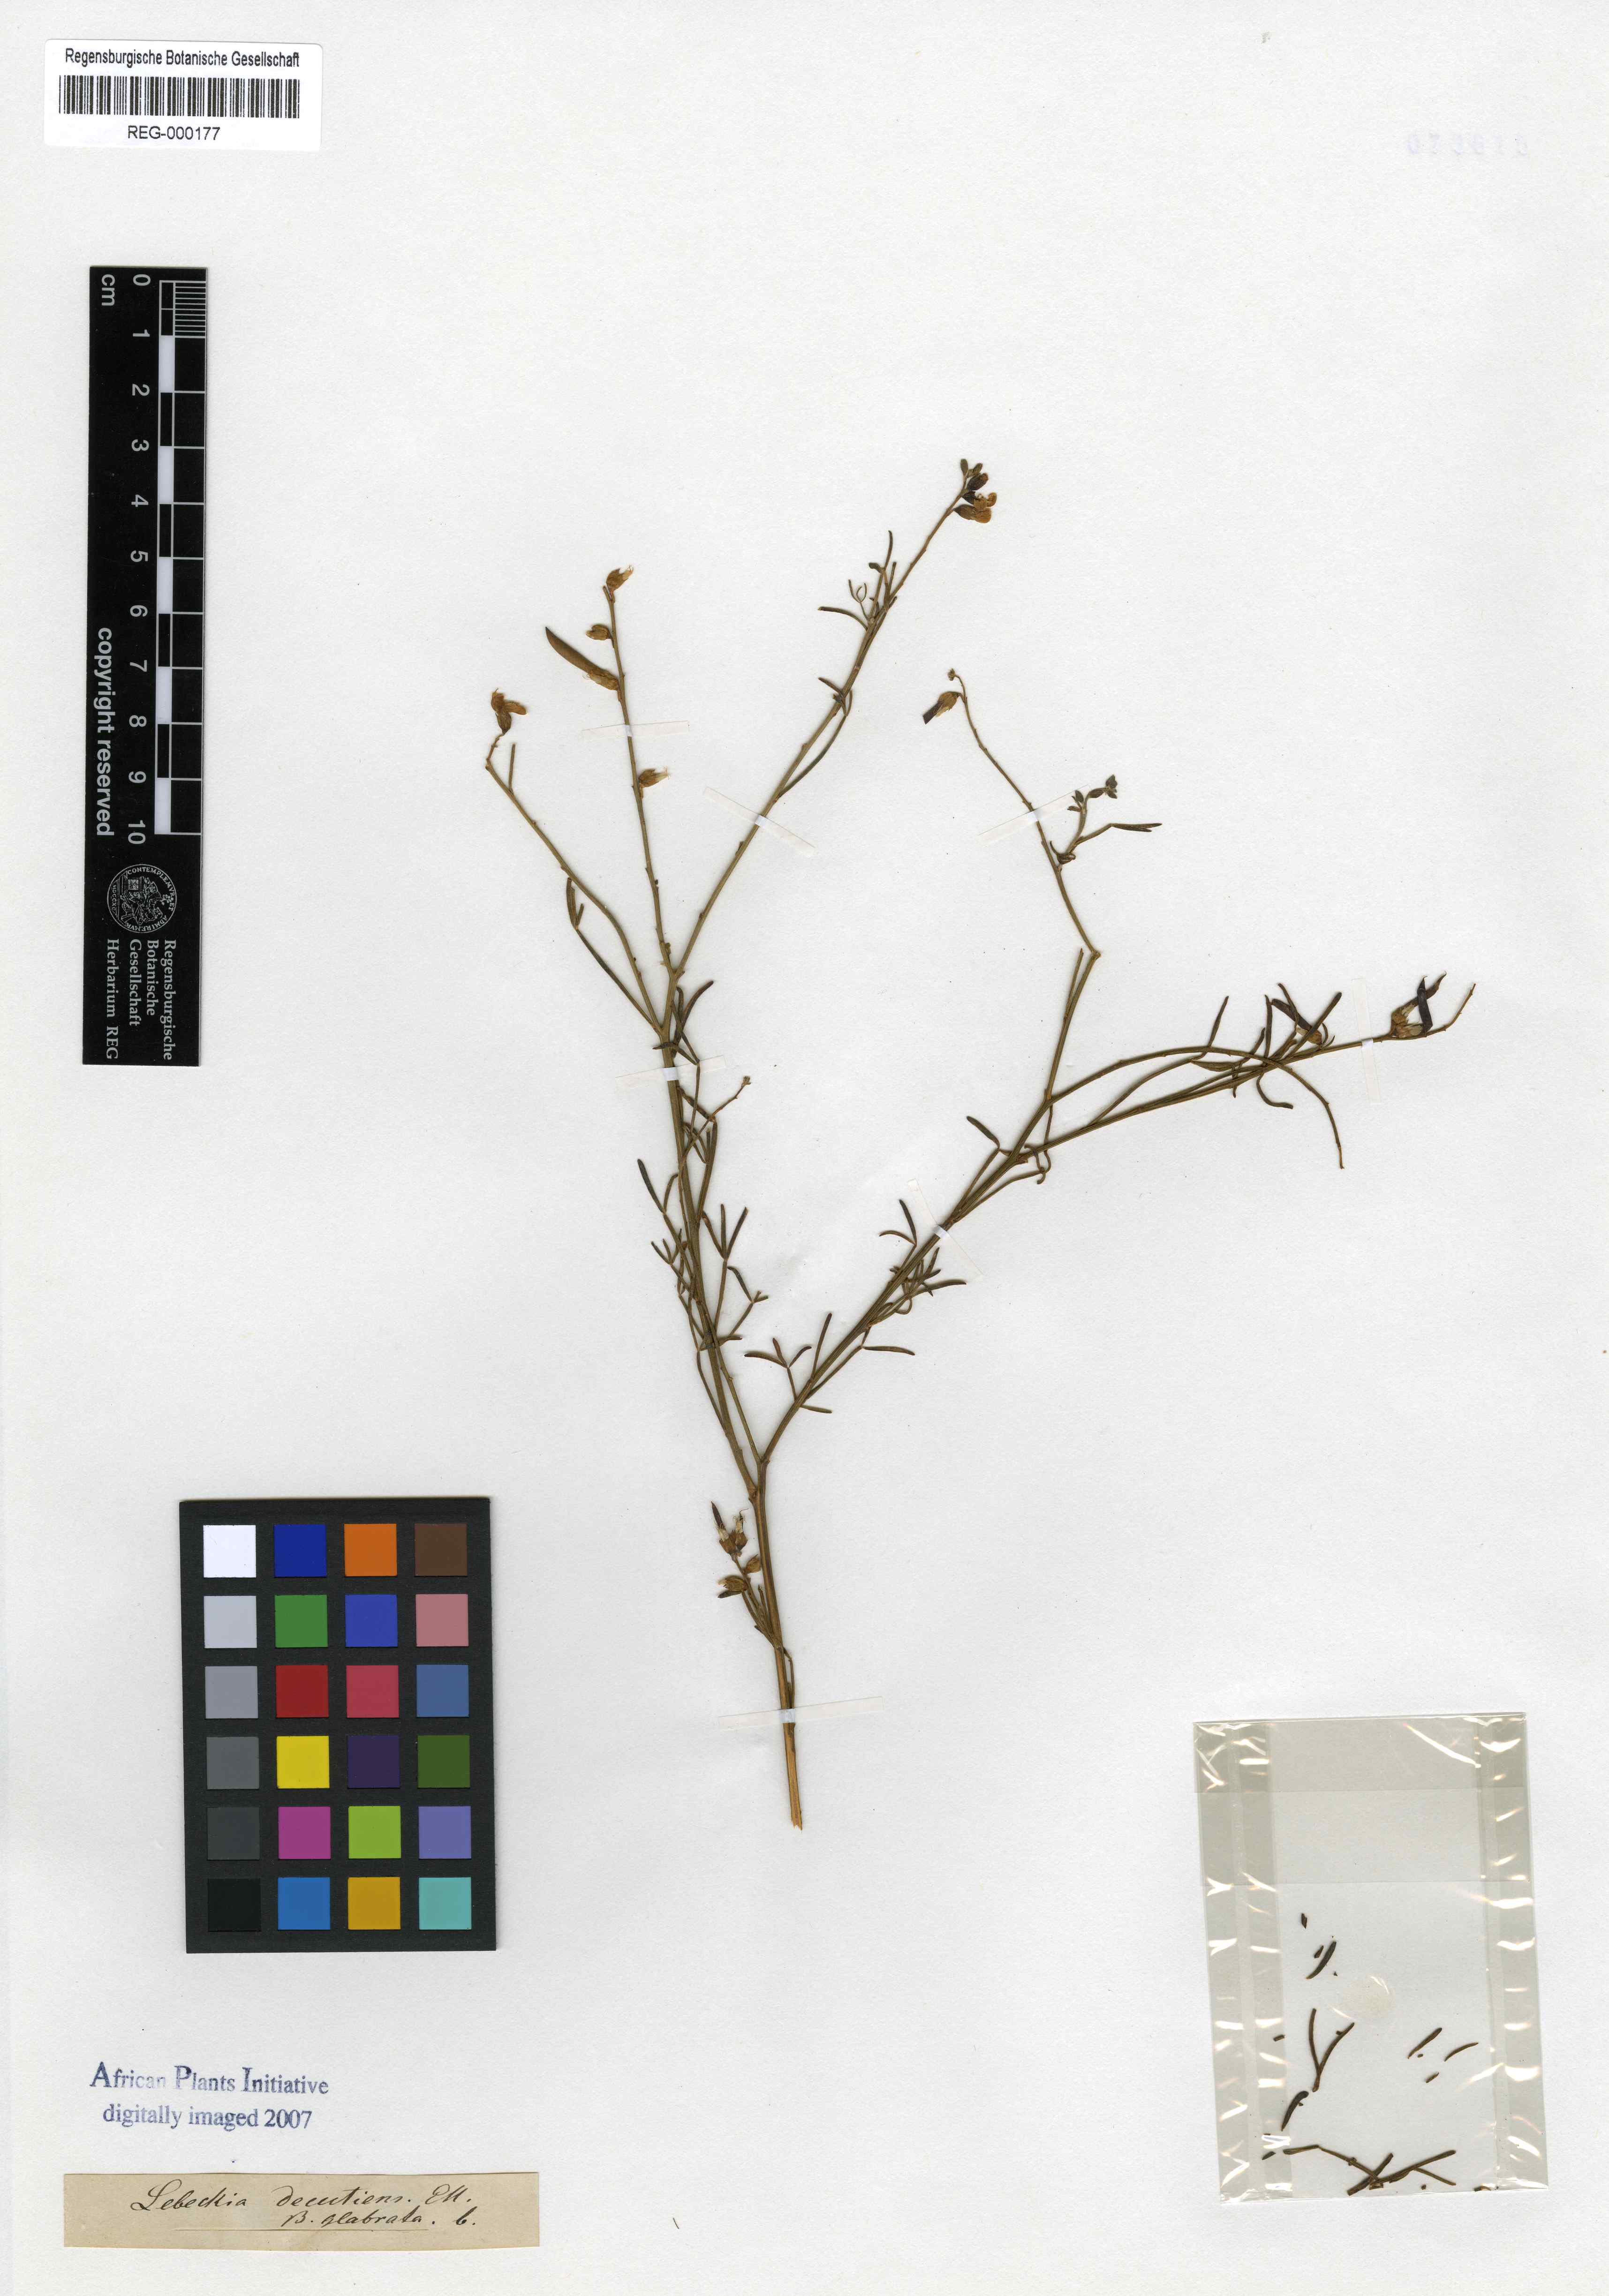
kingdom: Plantae
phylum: Tracheophyta
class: Magnoliopsida
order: Fabales
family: Fabaceae
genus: Calobota
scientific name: Calobota halenbergensis
